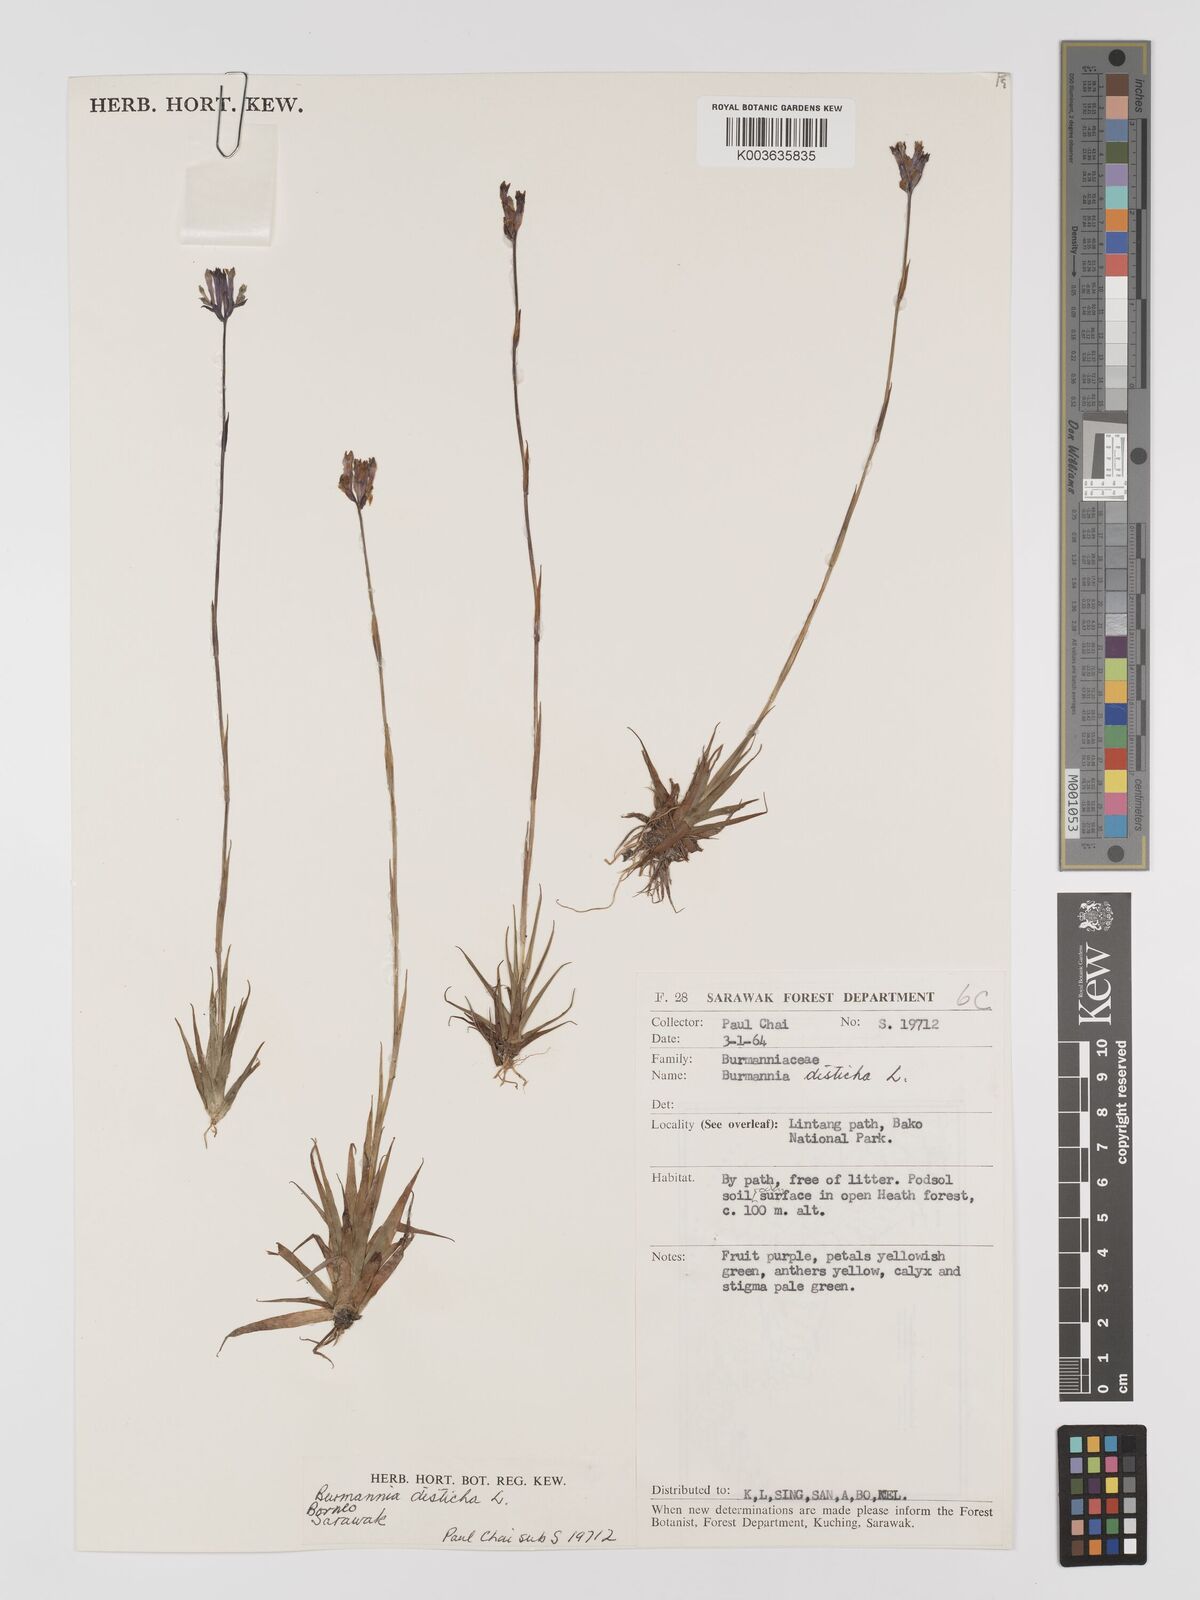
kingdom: Plantae
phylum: Tracheophyta
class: Liliopsida
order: Dioscoreales
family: Burmanniaceae
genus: Burmannia
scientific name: Burmannia disticha
